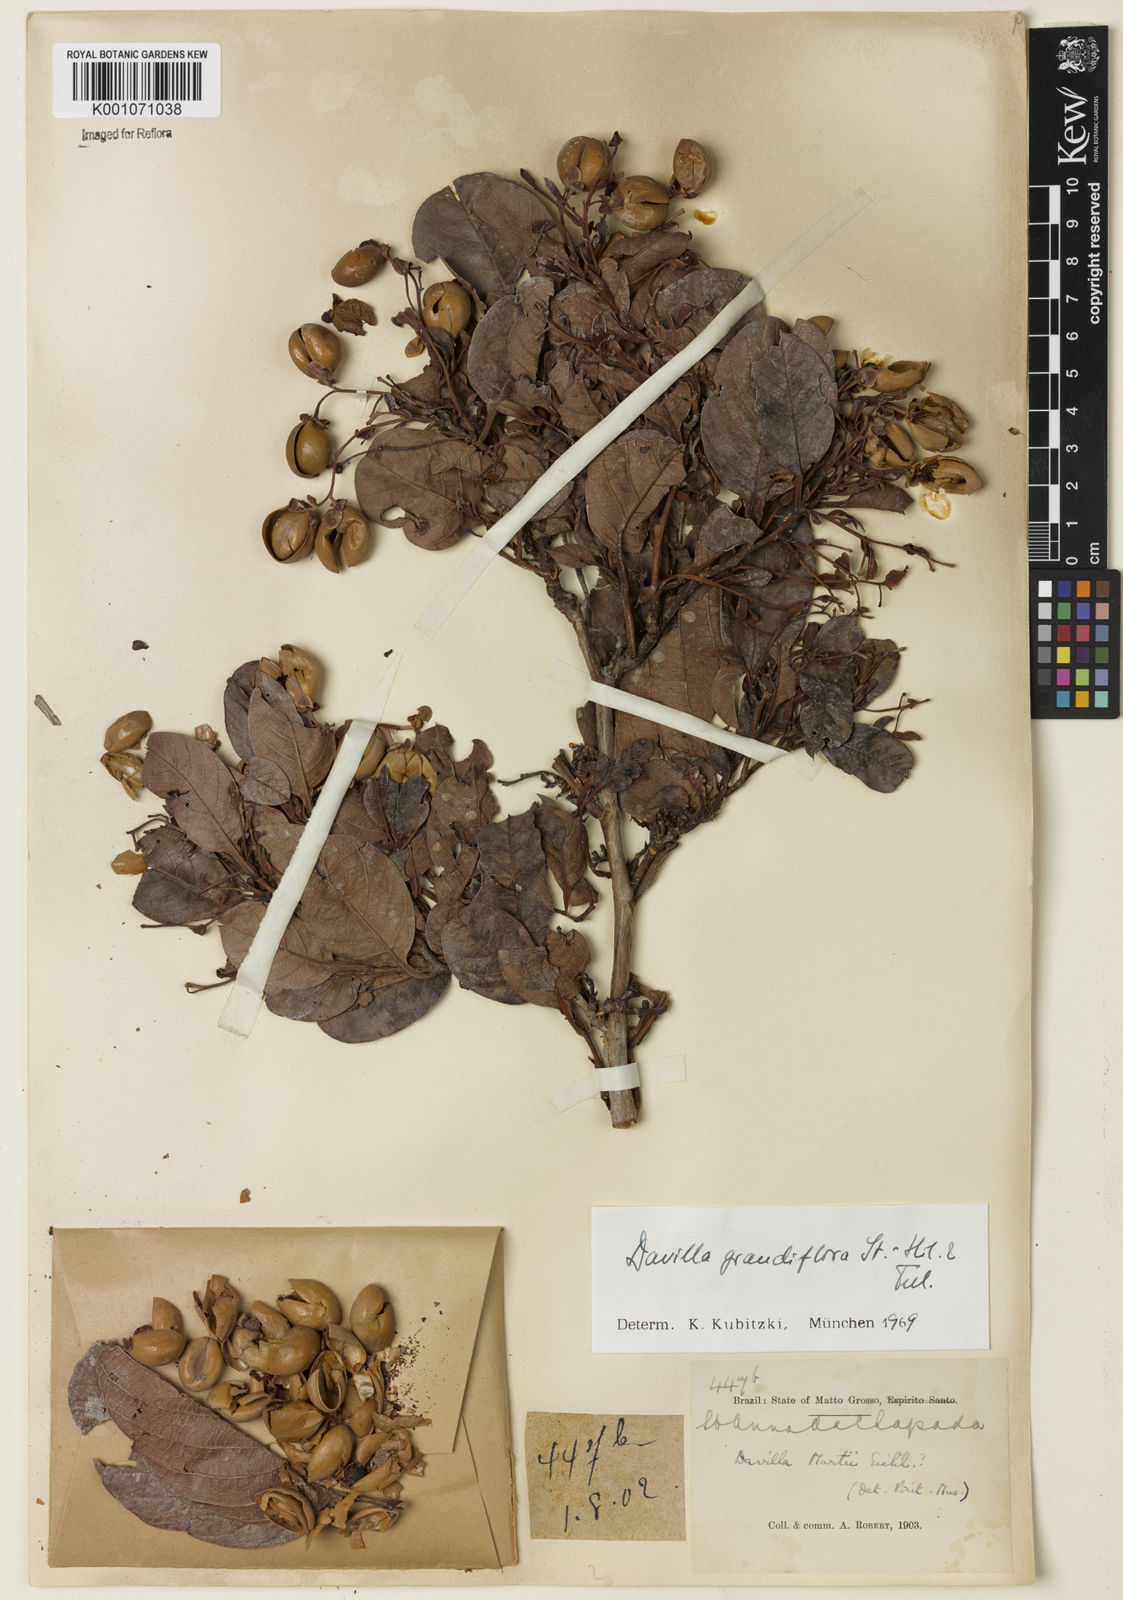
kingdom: Plantae
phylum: Tracheophyta
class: Magnoliopsida
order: Dilleniales
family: Dilleniaceae
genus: Davilla
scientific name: Davilla grandiflora
